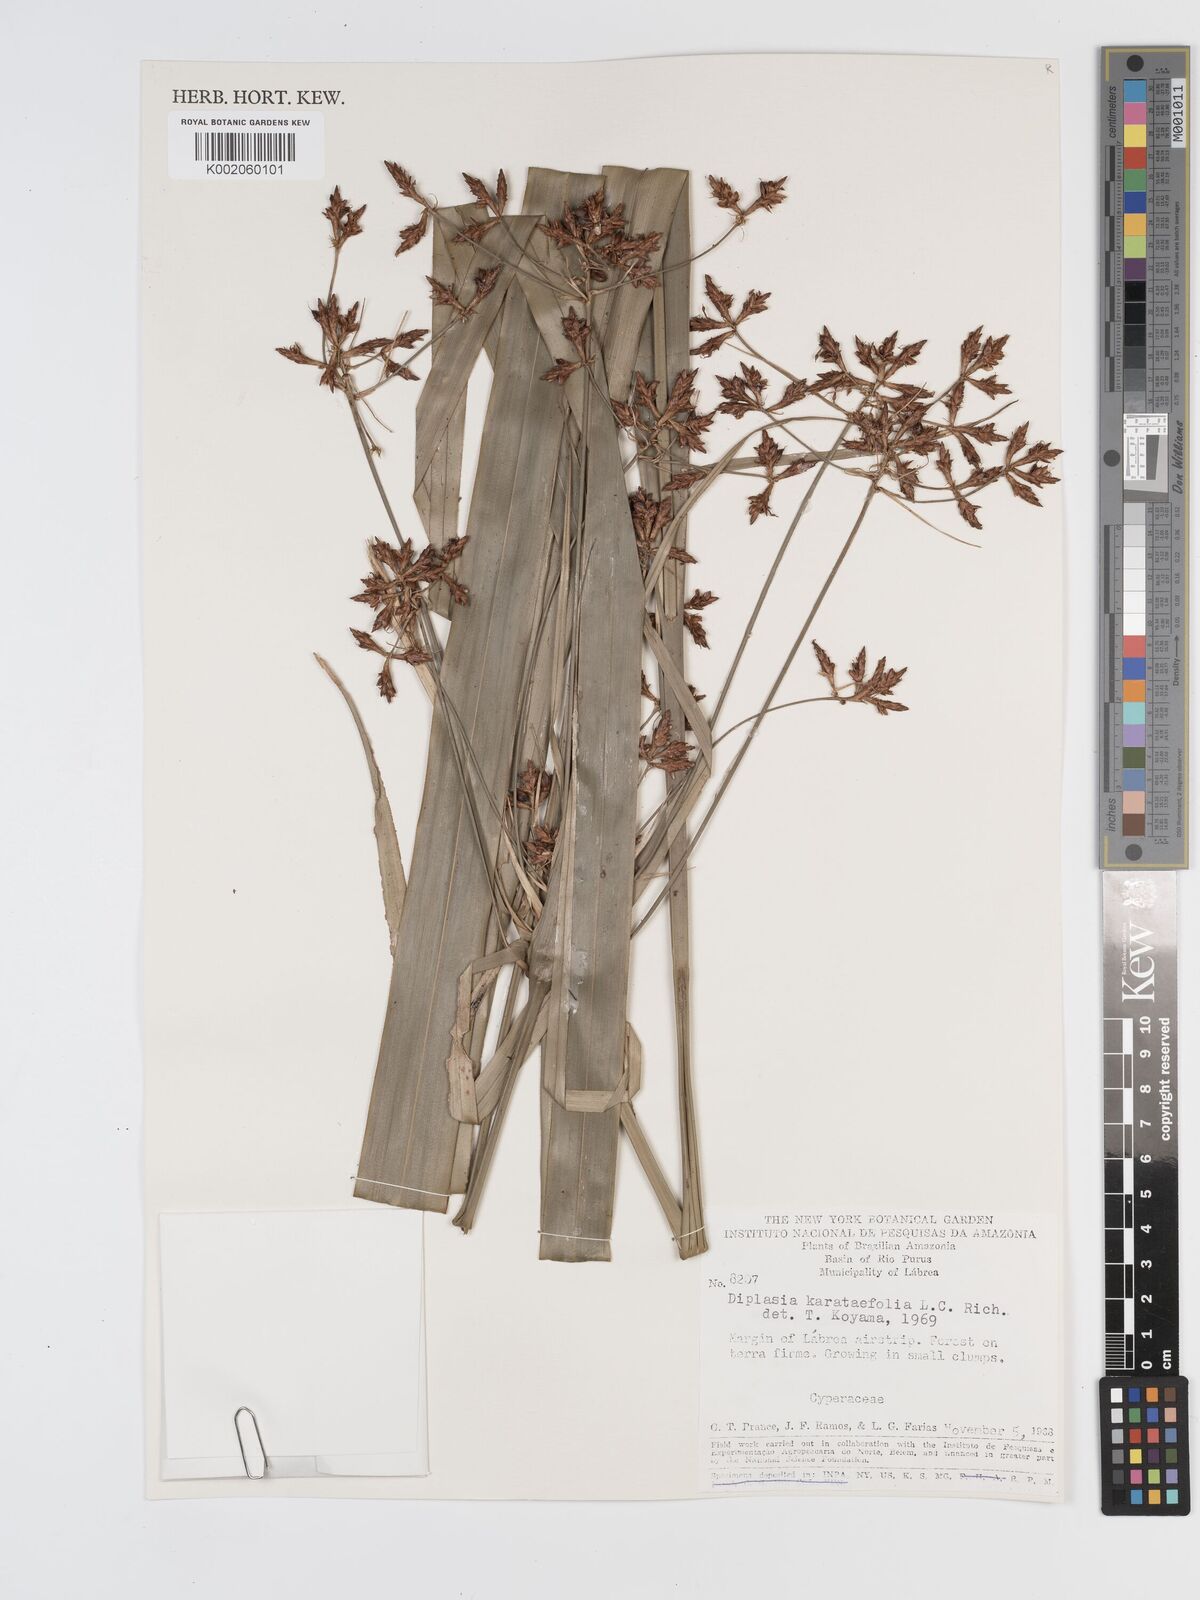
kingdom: Plantae
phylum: Tracheophyta
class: Liliopsida
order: Poales
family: Cyperaceae
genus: Diplasia
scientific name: Diplasia karatifolia
